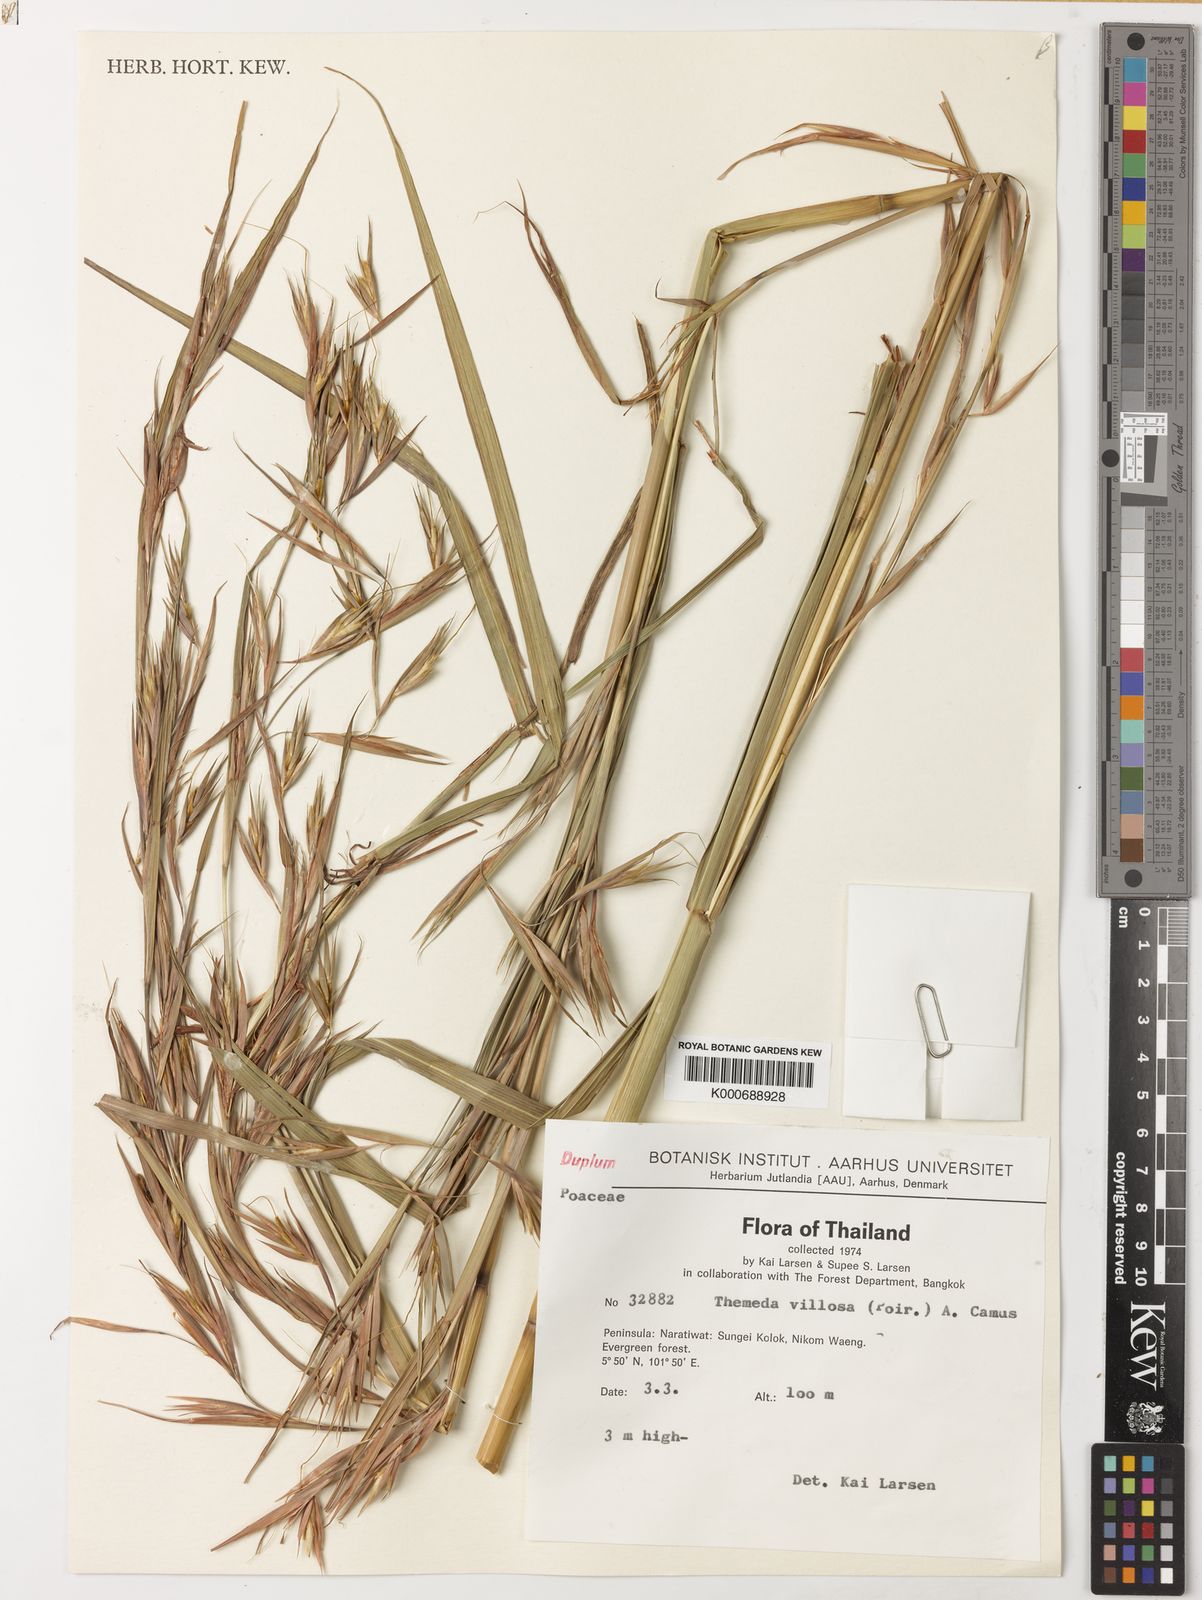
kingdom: Plantae
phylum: Tracheophyta
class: Liliopsida
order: Poales
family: Poaceae
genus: Themeda
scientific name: Themeda villosa
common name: Silky kangaroo grass
